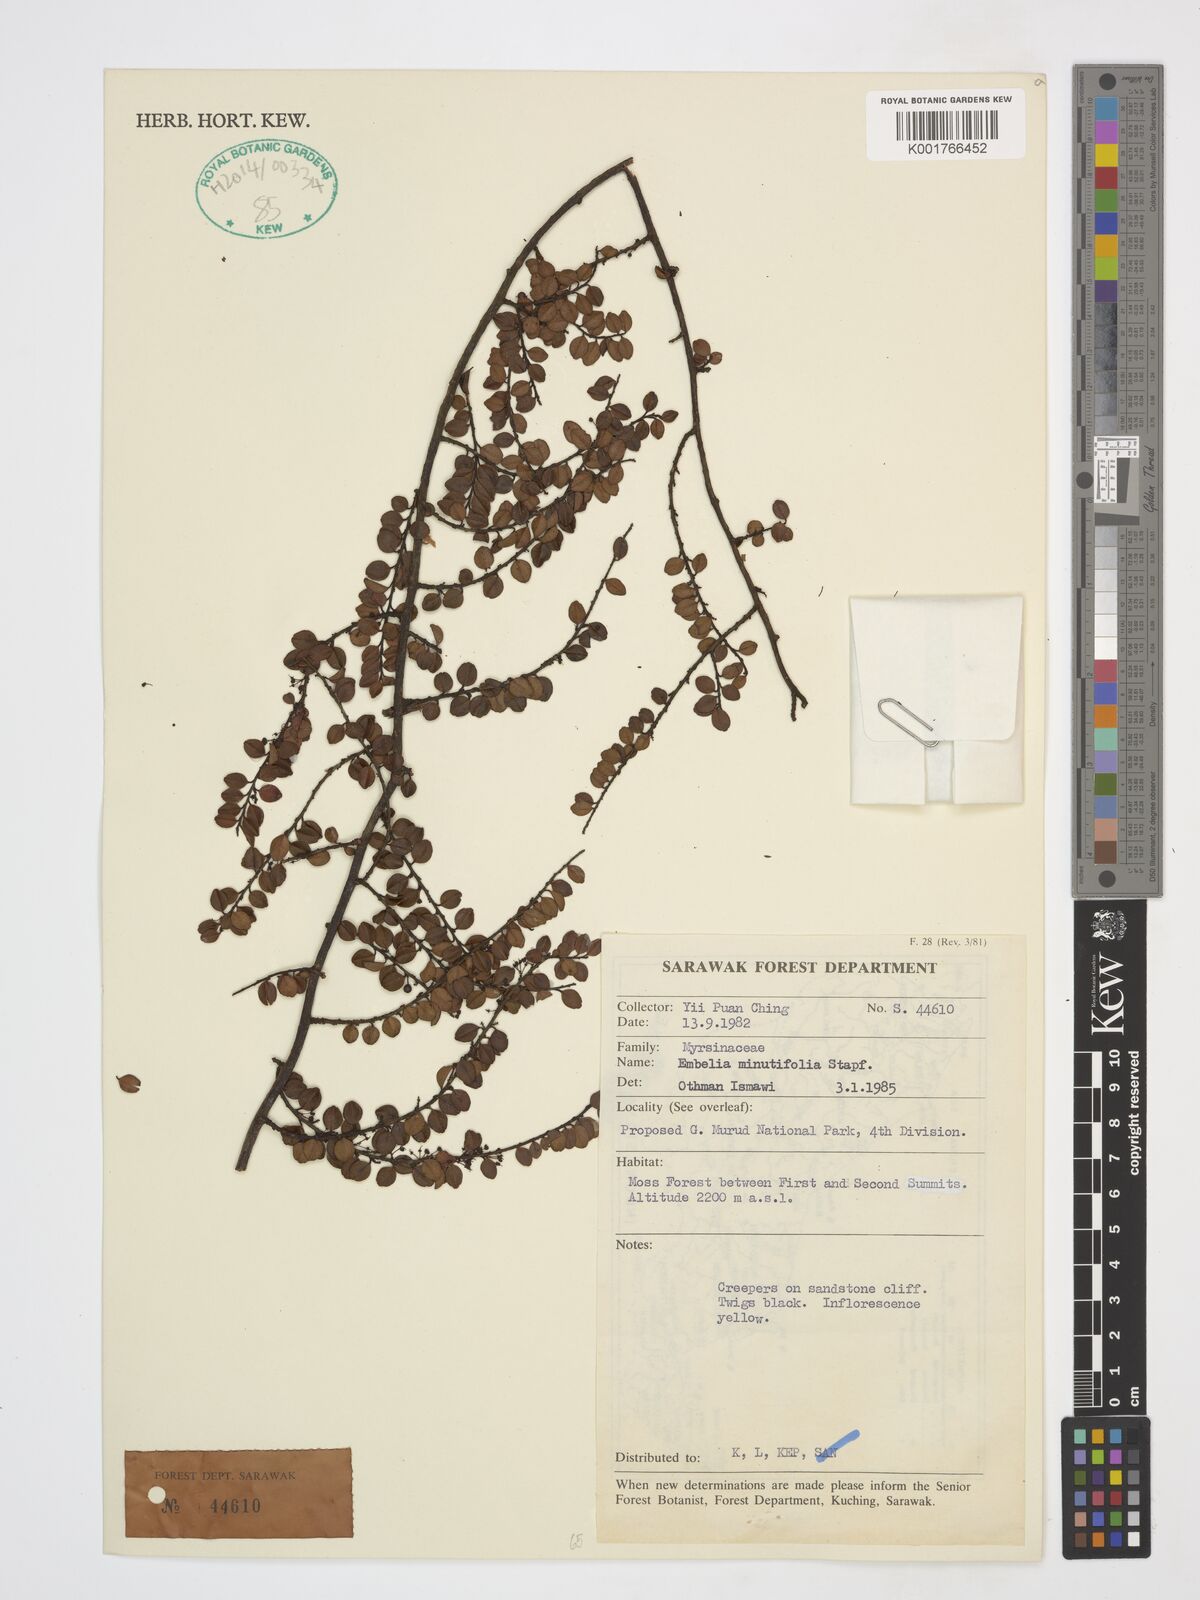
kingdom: Plantae
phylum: Tracheophyta
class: Magnoliopsida
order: Ericales
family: Primulaceae
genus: Embelia
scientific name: Embelia minutifolia
